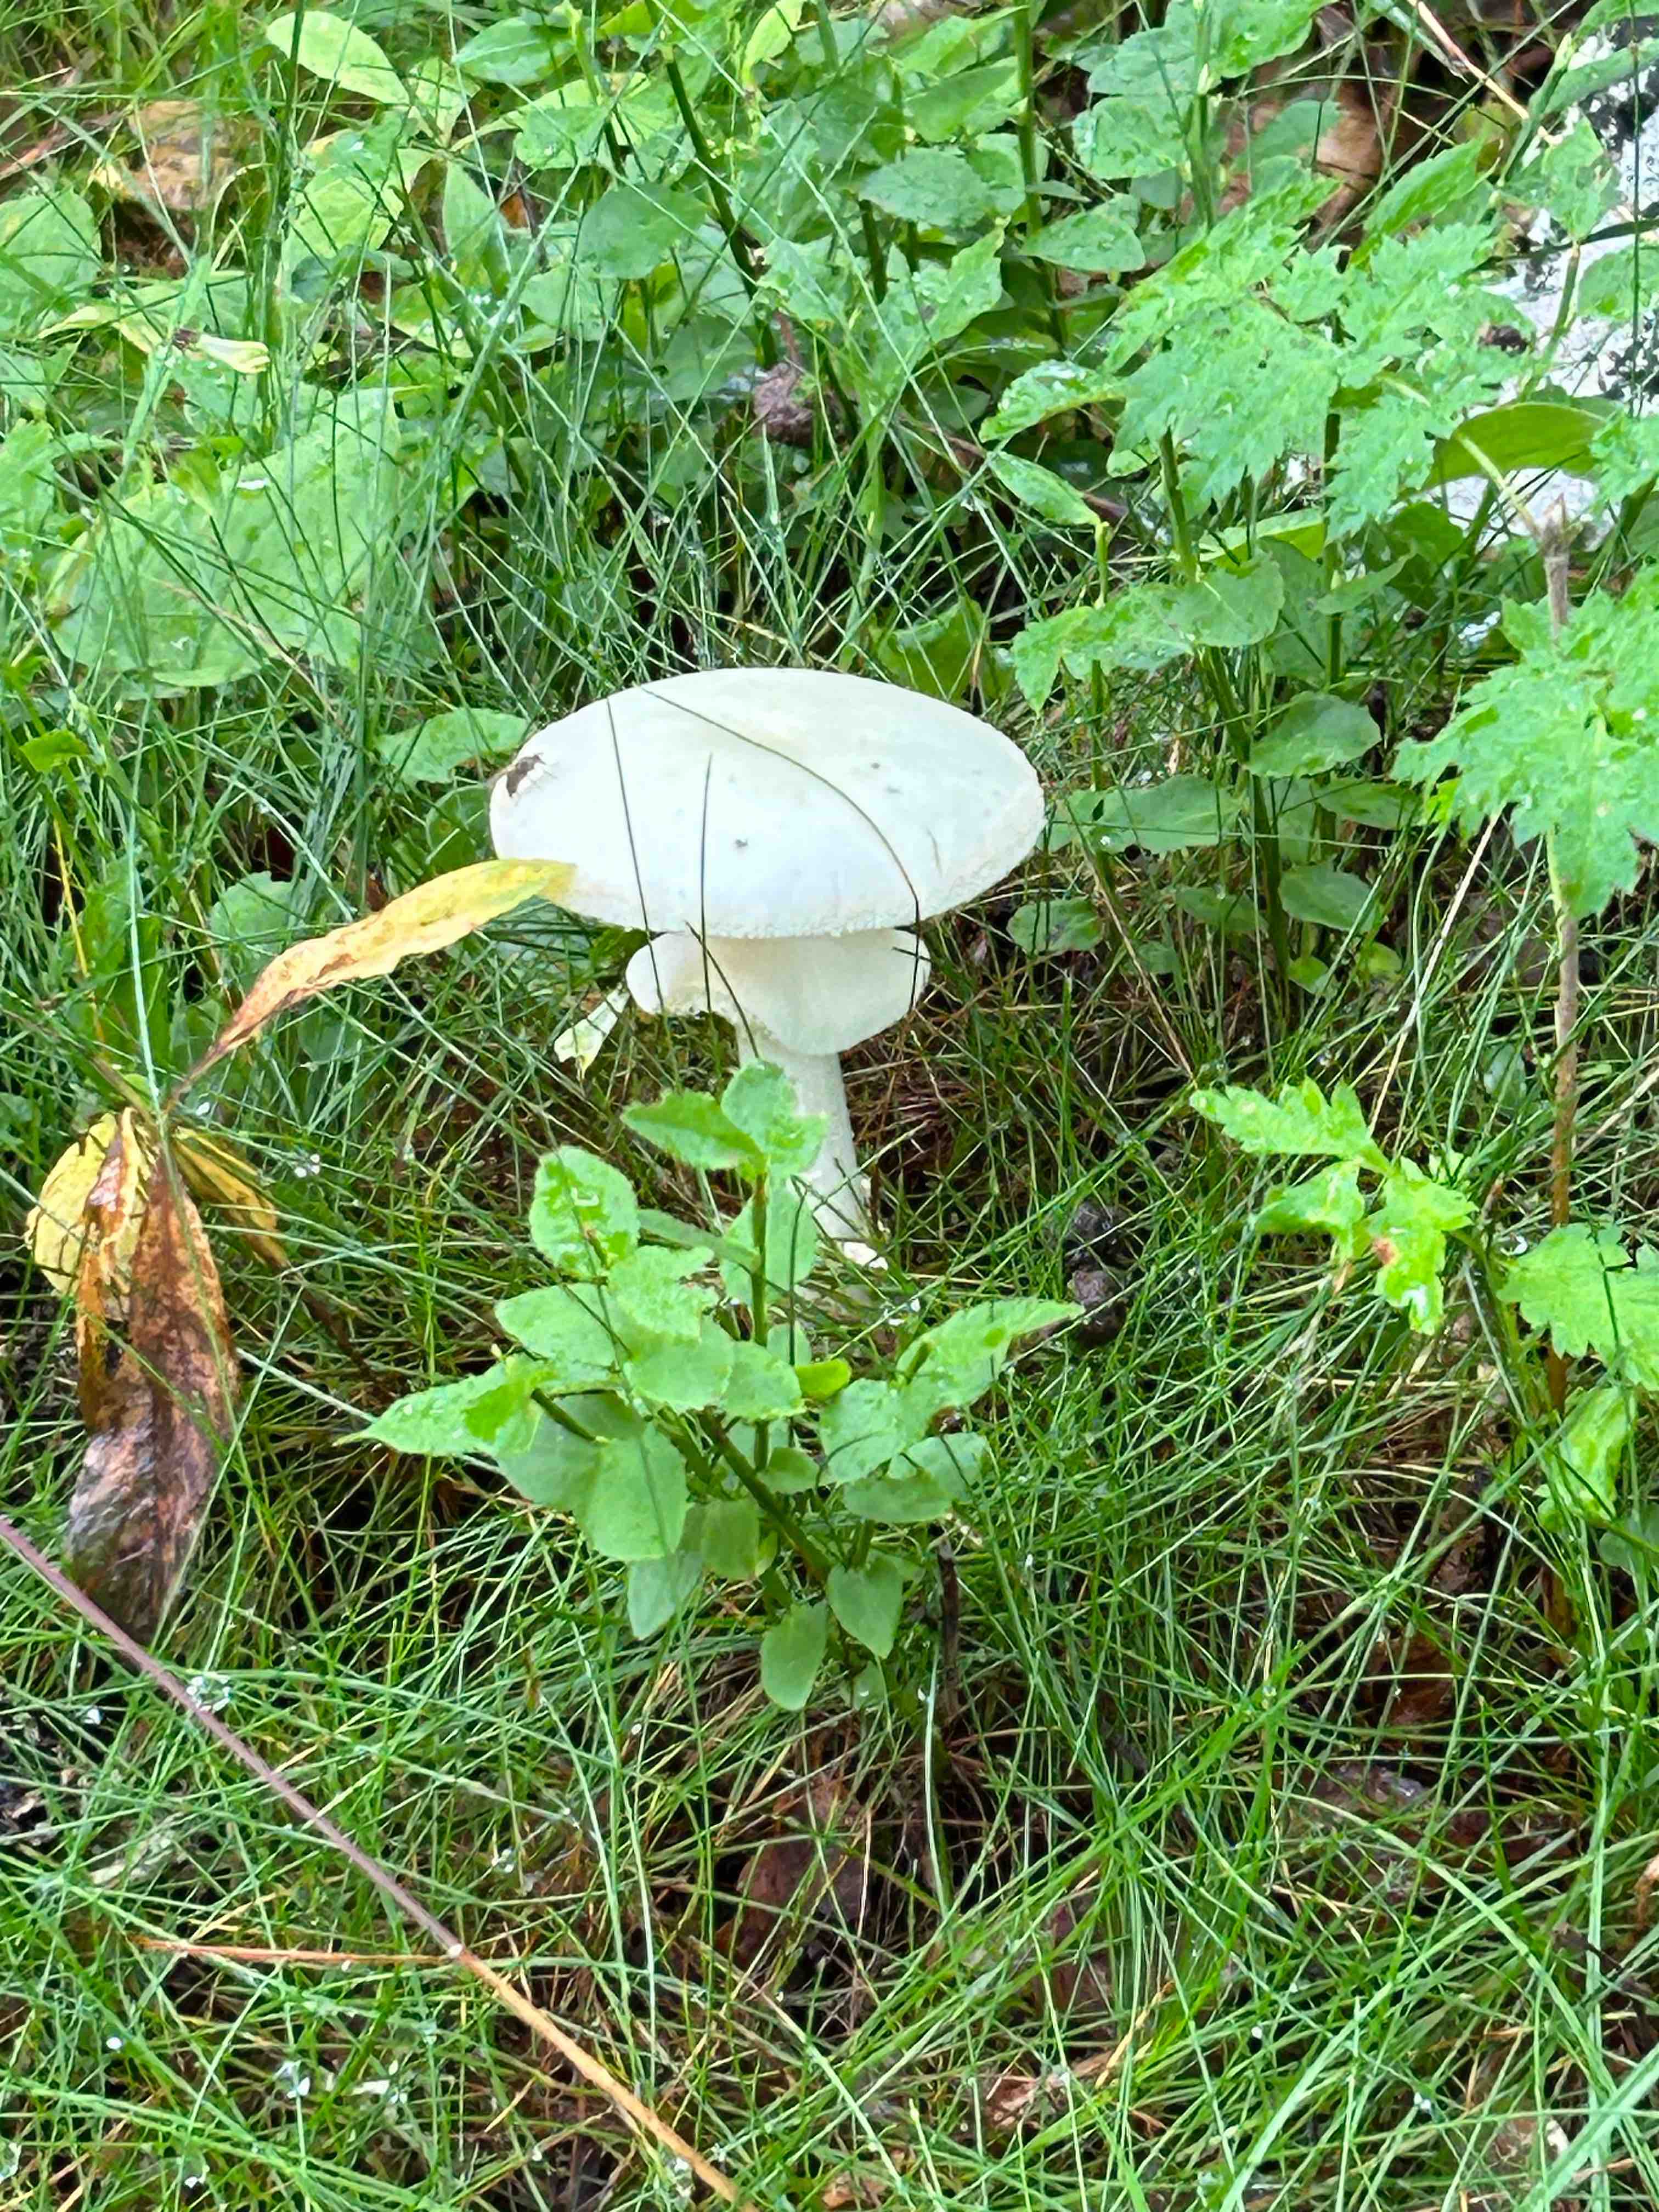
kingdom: Fungi
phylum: Basidiomycota
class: Agaricomycetes
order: Agaricales
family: Amanitaceae
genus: Amanita
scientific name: Amanita
